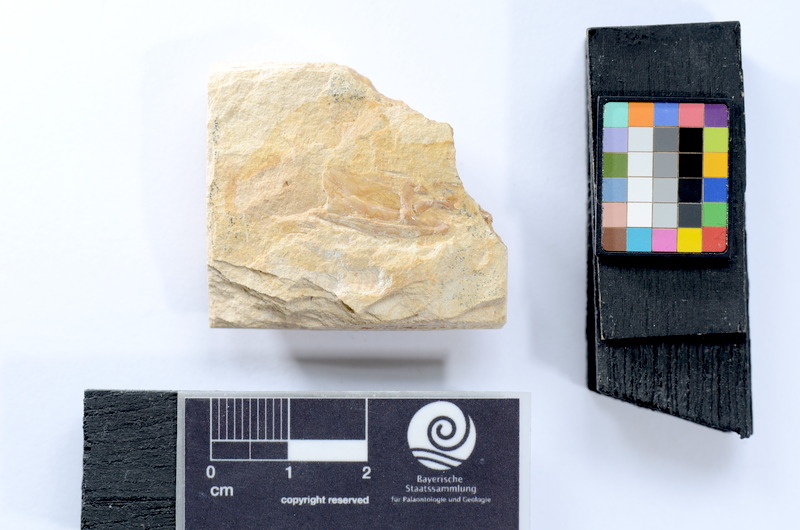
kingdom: Animalia
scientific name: Animalia
